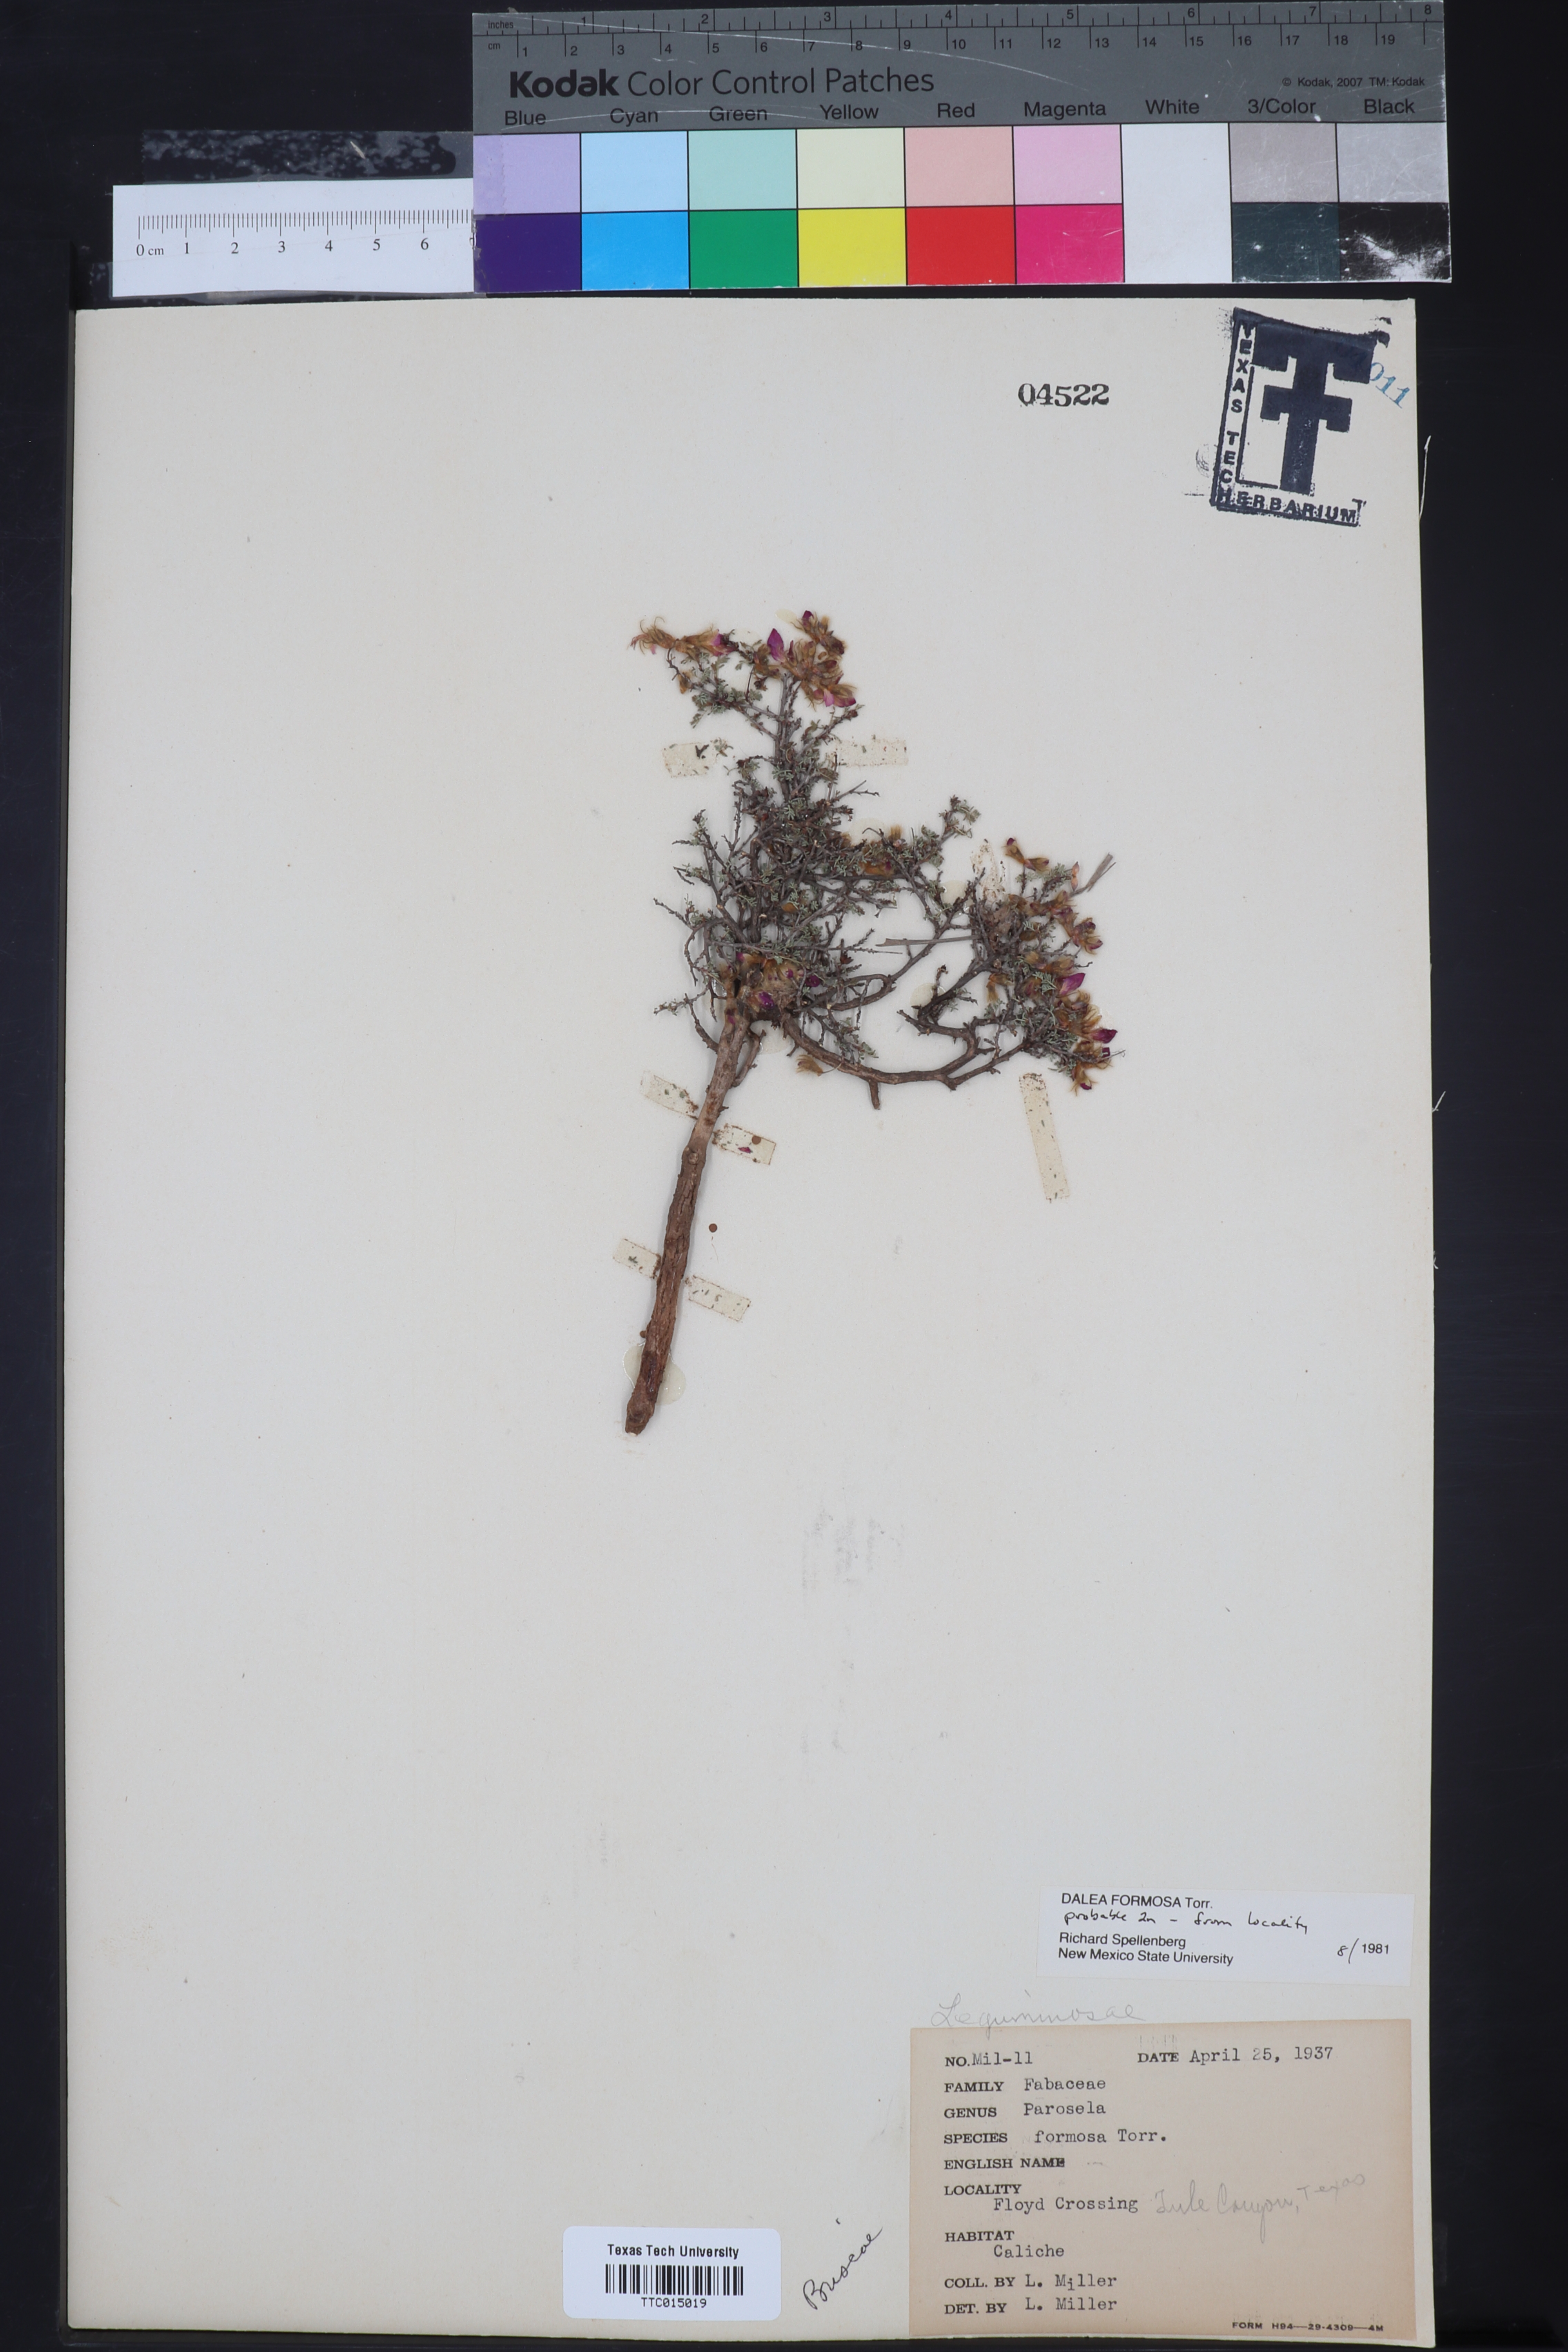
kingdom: Plantae
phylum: Tracheophyta
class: Magnoliopsida
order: Fabales
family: Fabaceae
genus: Dalea
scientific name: Dalea formosa
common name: Feather-plume dalea
